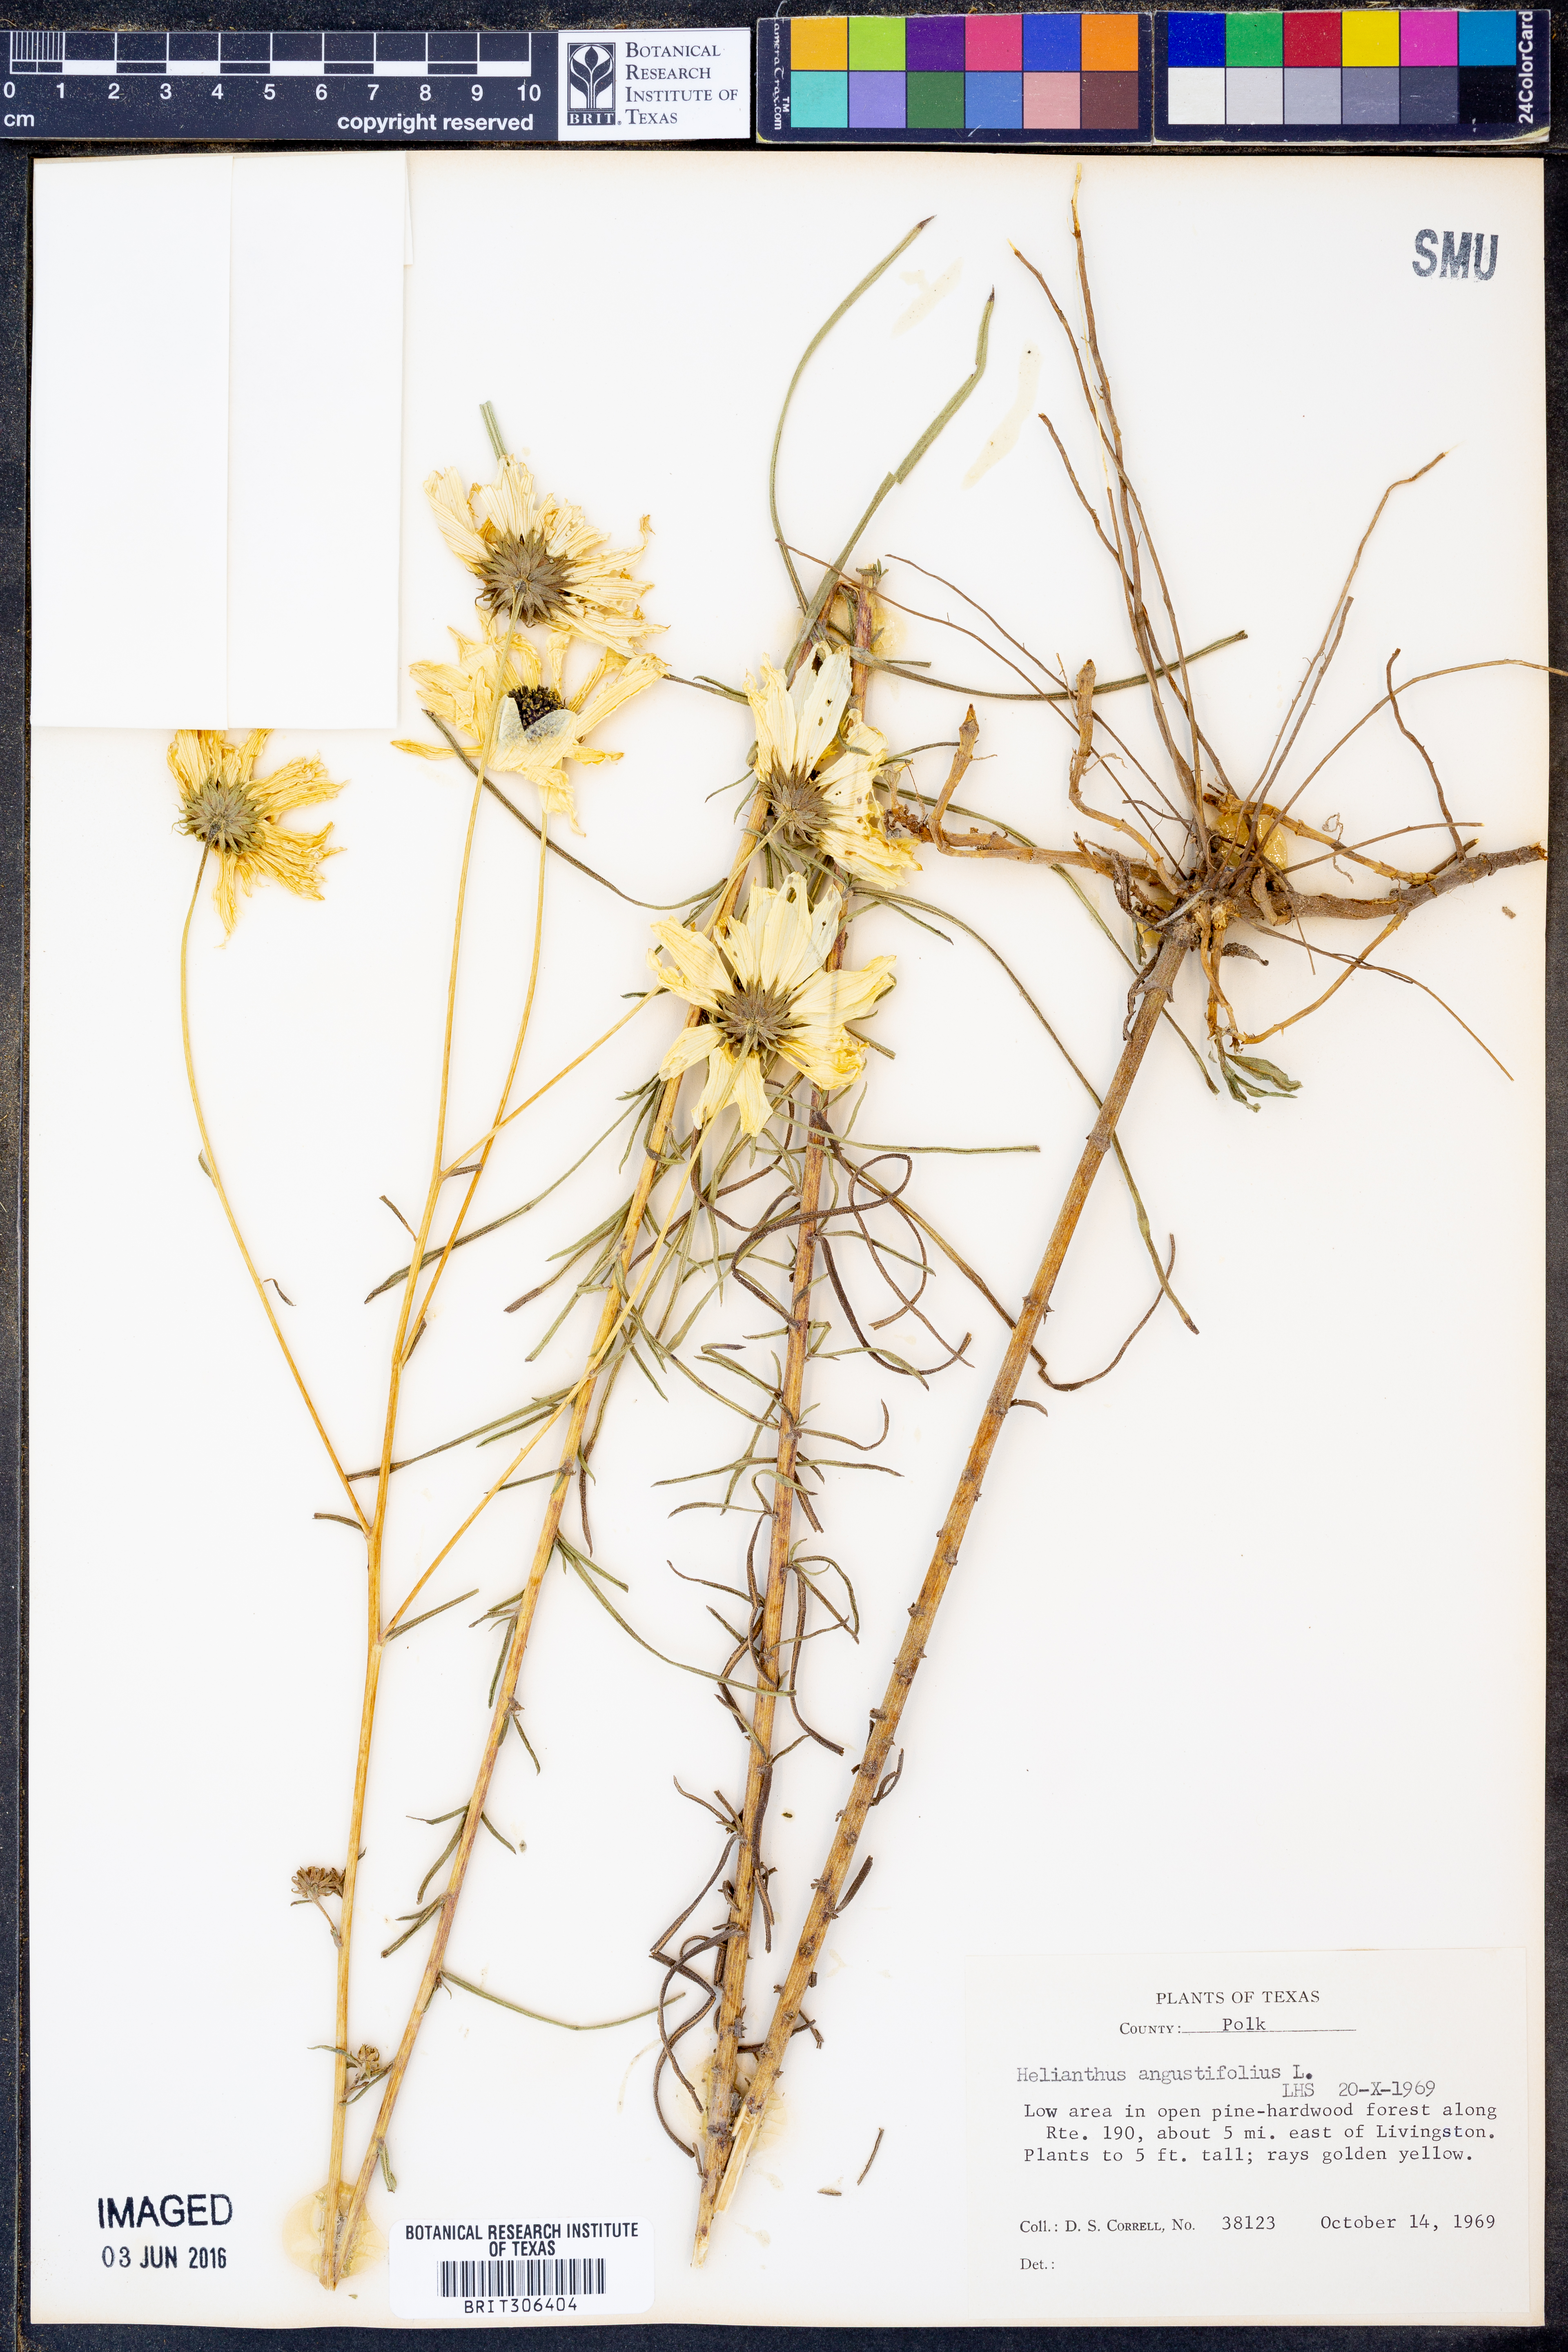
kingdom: Plantae
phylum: Tracheophyta
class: Magnoliopsida
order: Asterales
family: Asteraceae
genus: Helianthus
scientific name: Helianthus angustifolius
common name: Swamp sunflower
